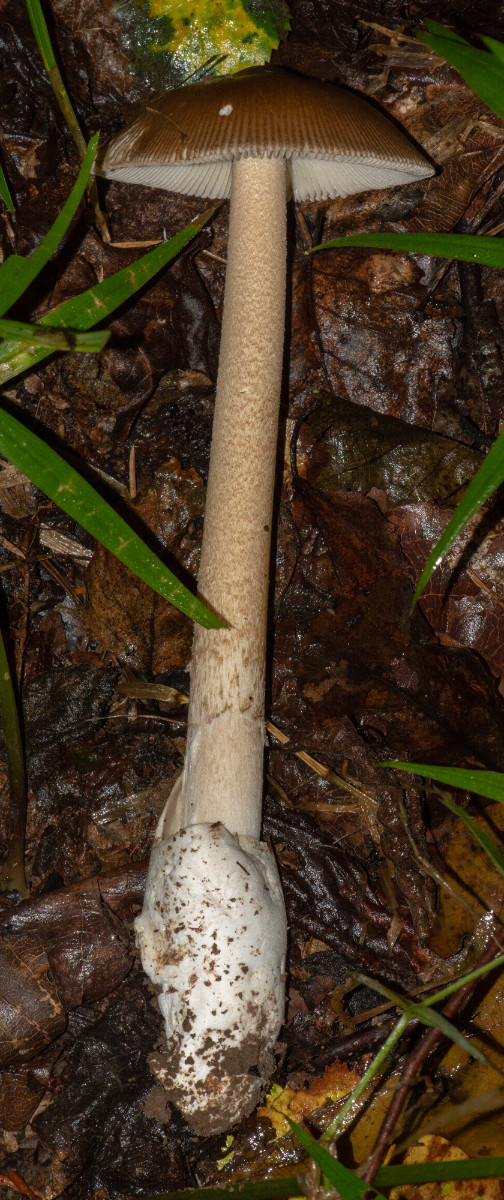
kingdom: Fungi
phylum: Basidiomycota
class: Agaricomycetes
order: Agaricales
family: Amanitaceae
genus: Amanita
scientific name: Amanita fulva
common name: brun kam-fluesvamp
